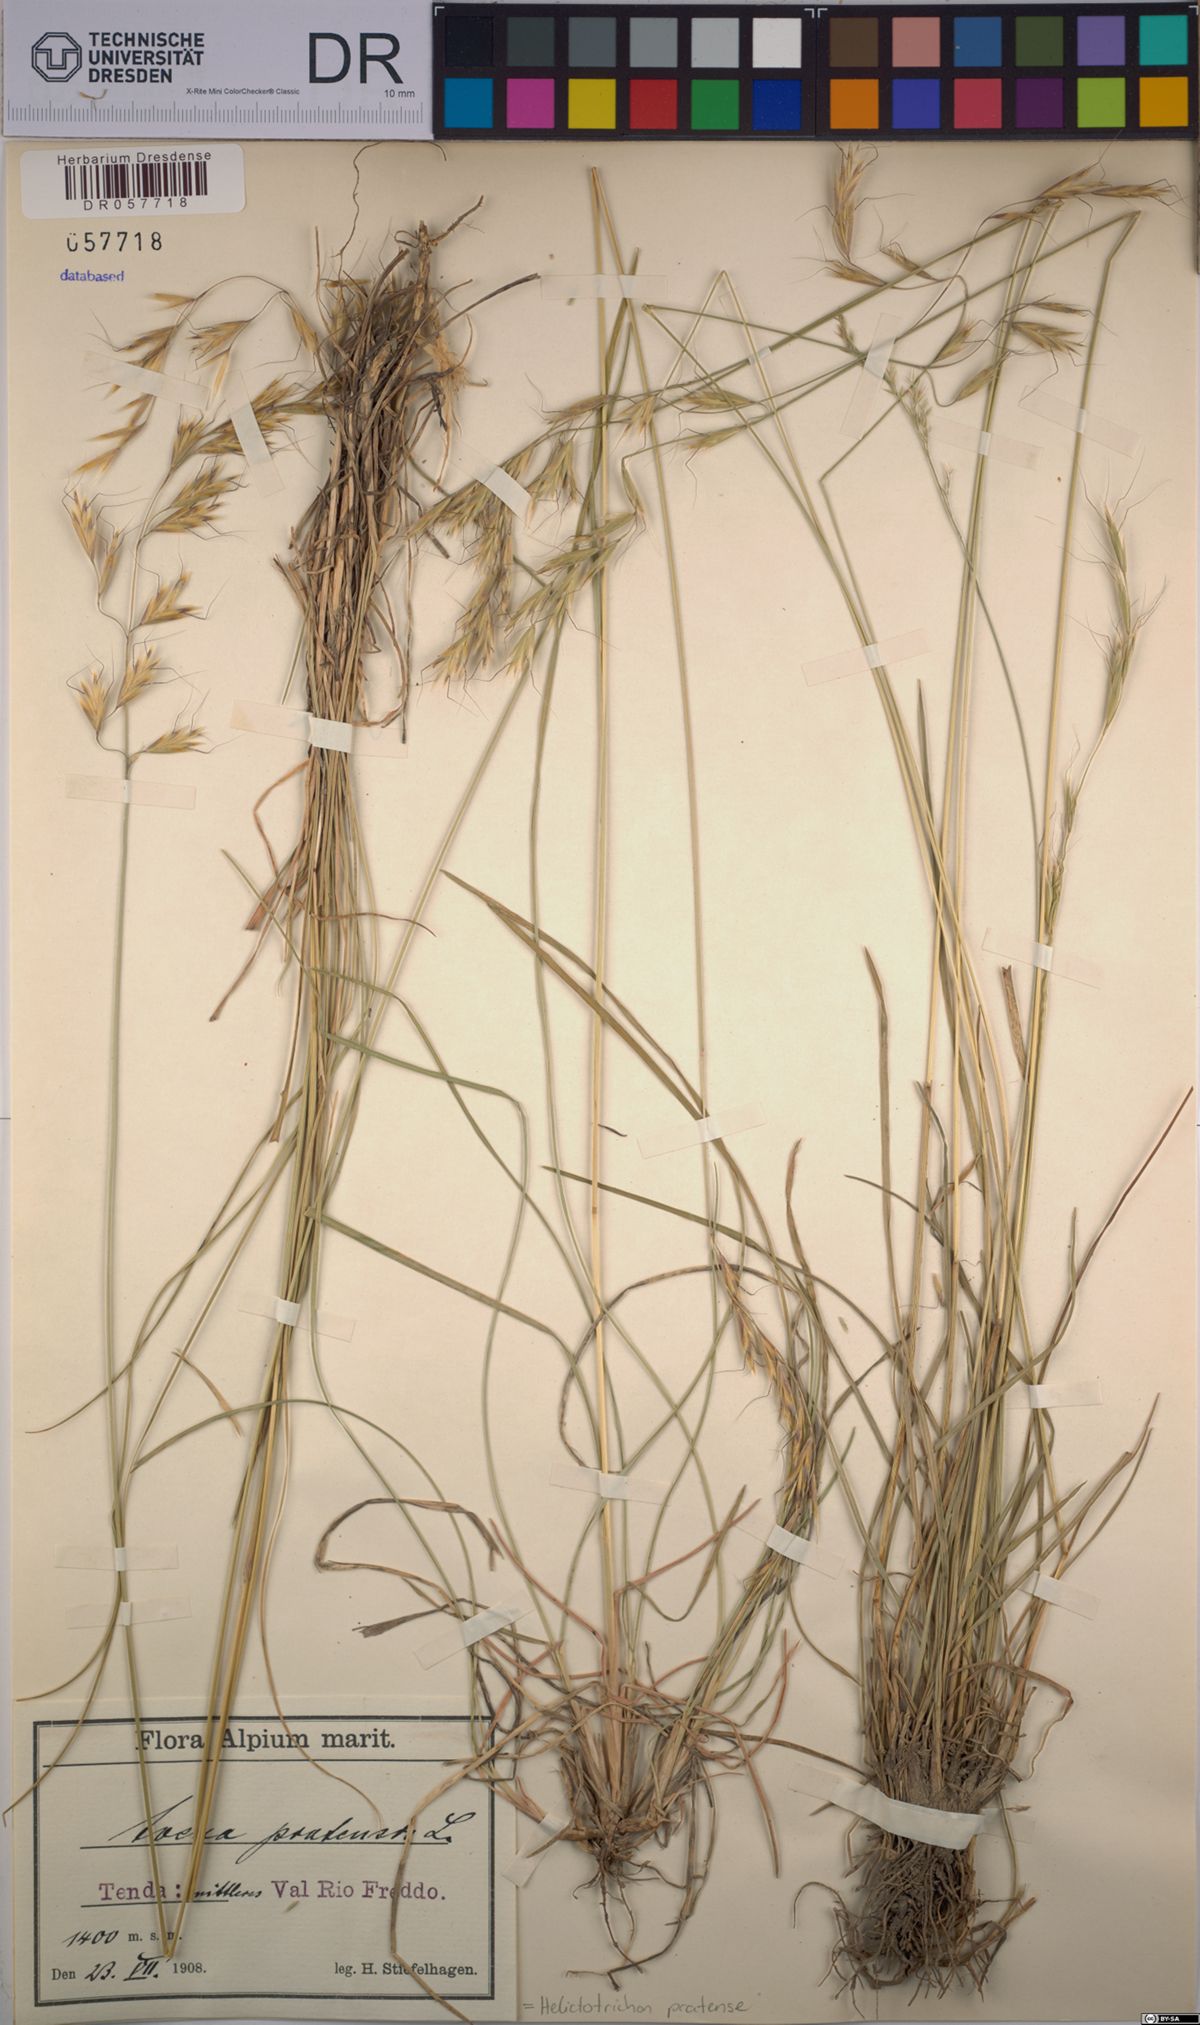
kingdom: Plantae
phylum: Tracheophyta
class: Liliopsida
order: Poales
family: Poaceae
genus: Helictochloa
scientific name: Helictochloa pratensis
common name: Meadow oat grass
